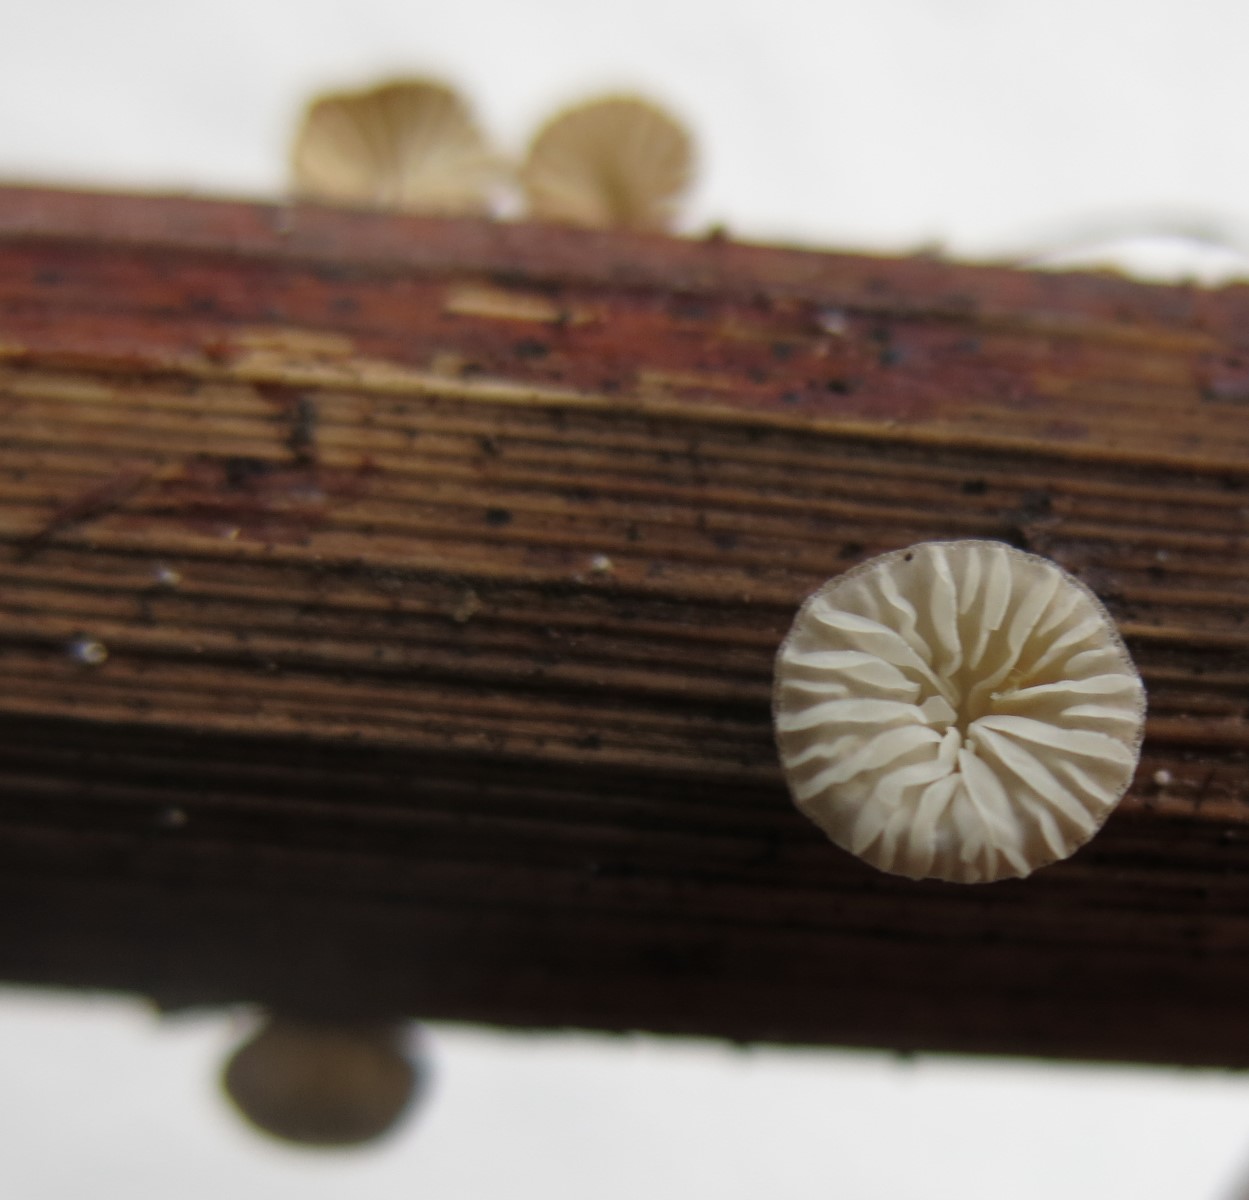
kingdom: Fungi
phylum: Basidiomycota
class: Agaricomycetes
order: Agaricales
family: Pleurotaceae
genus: Hohenbuehelia
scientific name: Hohenbuehelia cyphelliformis
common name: urte-filthat
